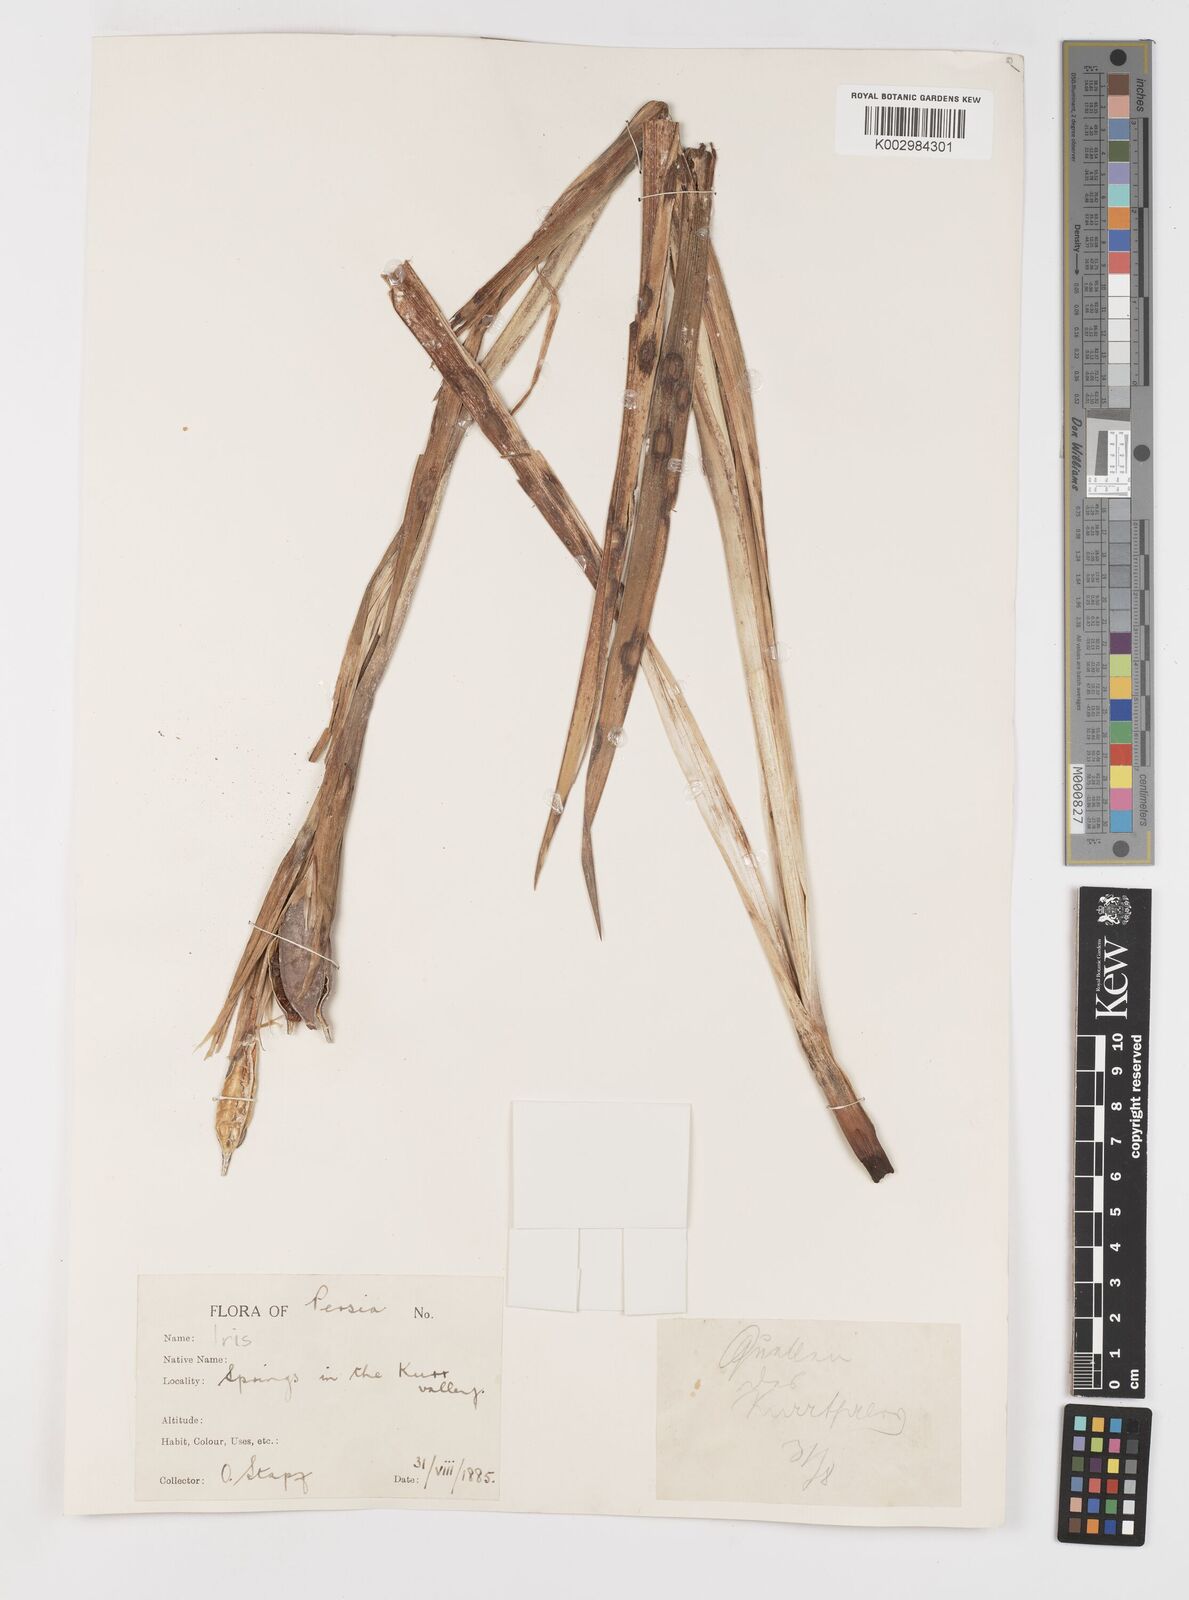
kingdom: Plantae
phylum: Tracheophyta
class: Liliopsida
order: Asparagales
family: Iridaceae
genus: Iris
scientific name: Iris spuria
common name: Blue iris
